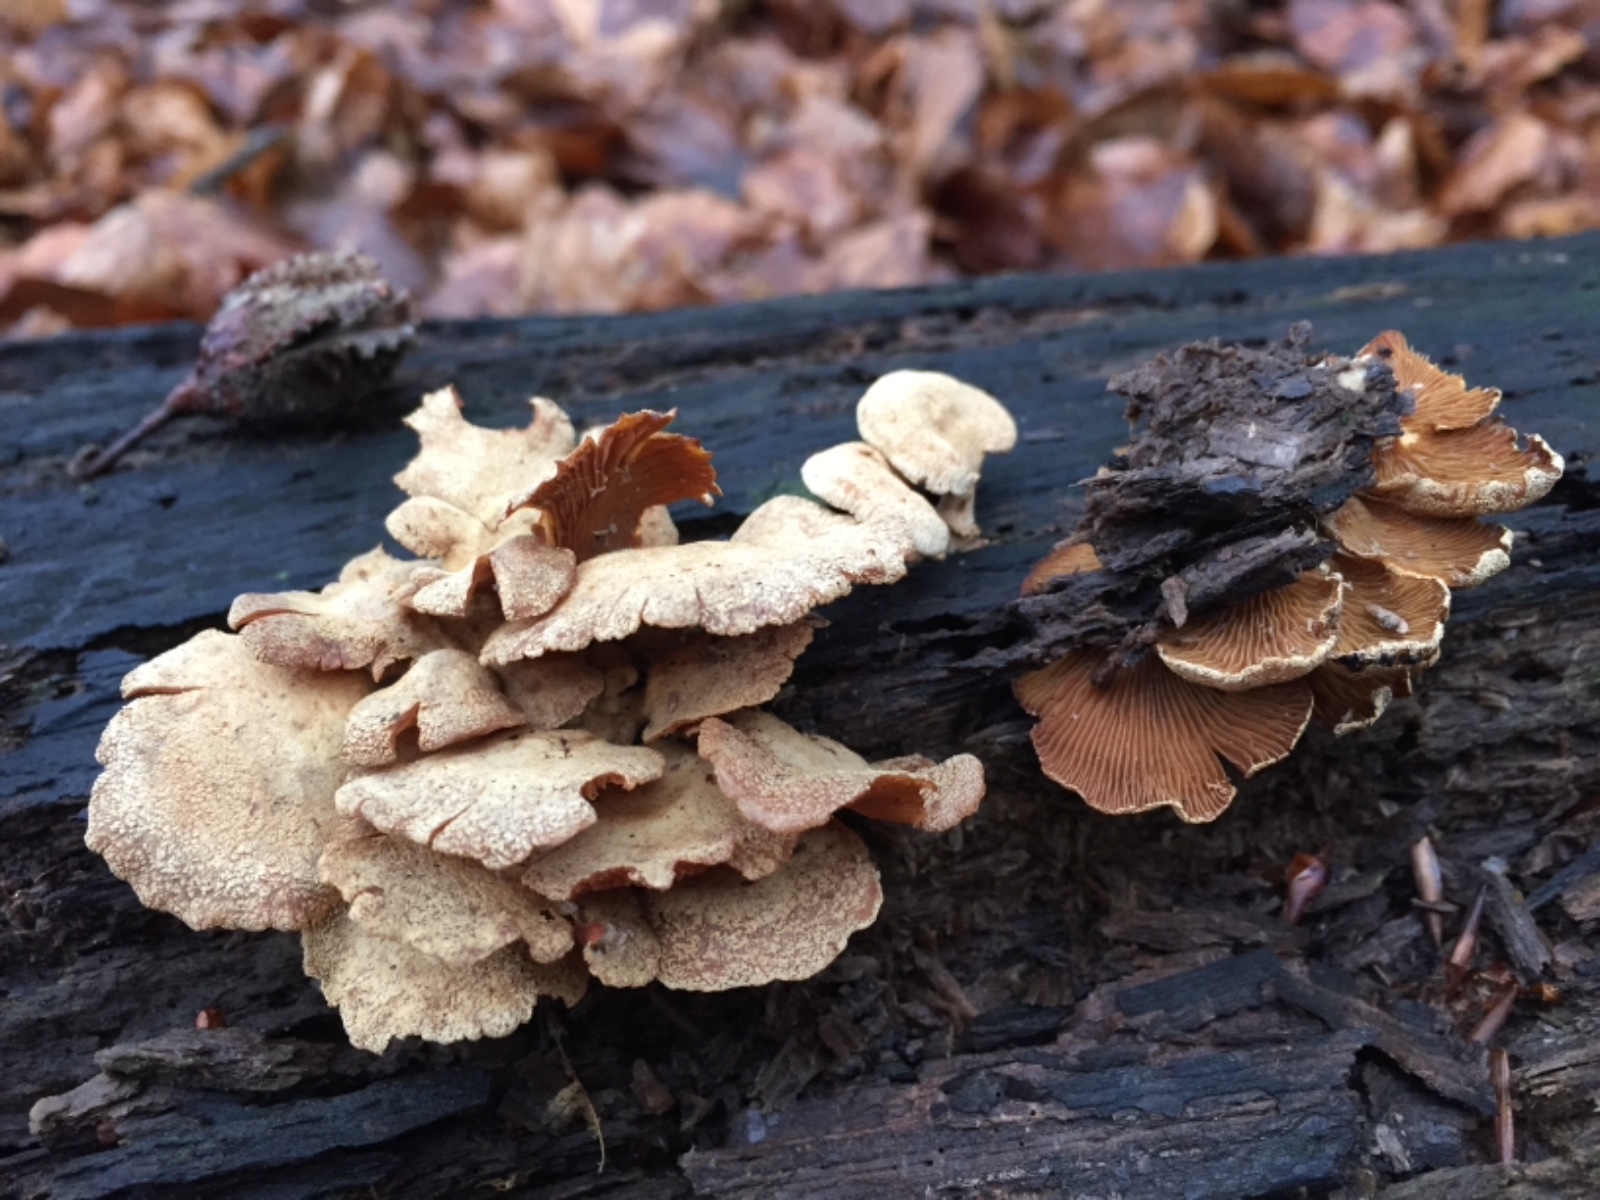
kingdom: Fungi
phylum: Basidiomycota
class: Agaricomycetes
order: Agaricales
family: Mycenaceae
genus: Panellus
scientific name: Panellus stipticus
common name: kliddet epaulethat
